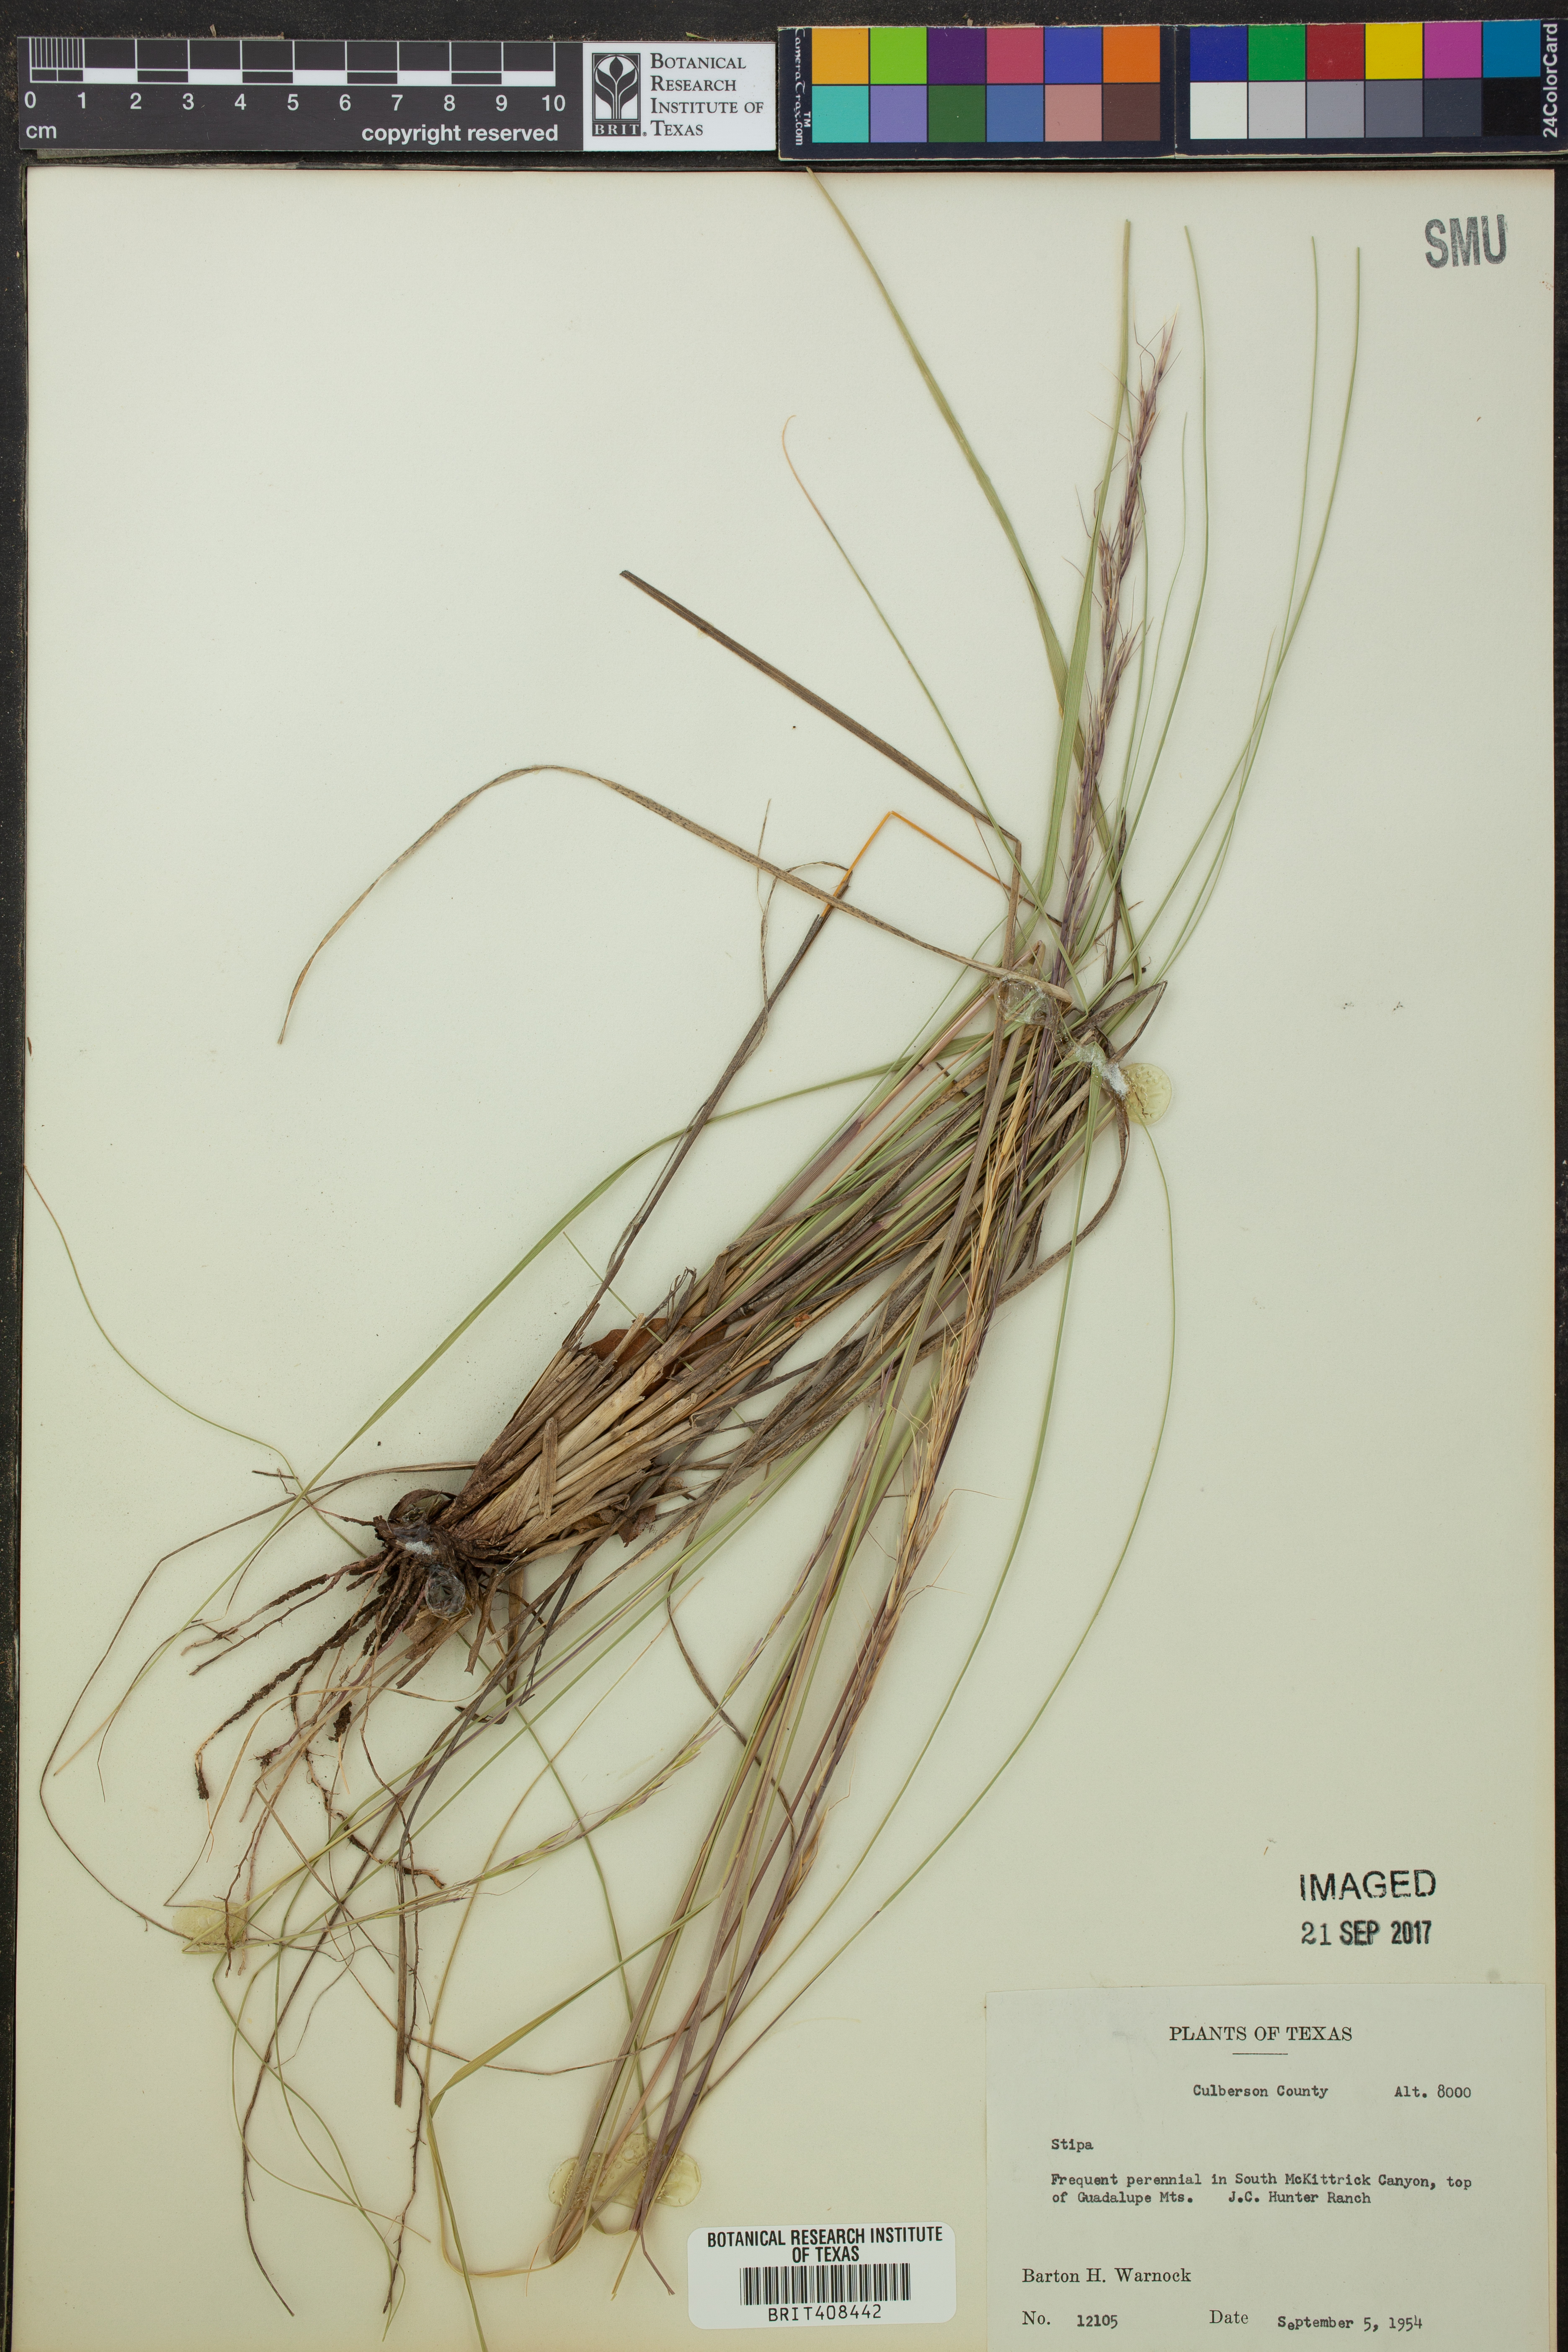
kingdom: Plantae
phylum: Tracheophyta
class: Liliopsida
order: Poales
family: Poaceae
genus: Stipa
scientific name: Stipa
